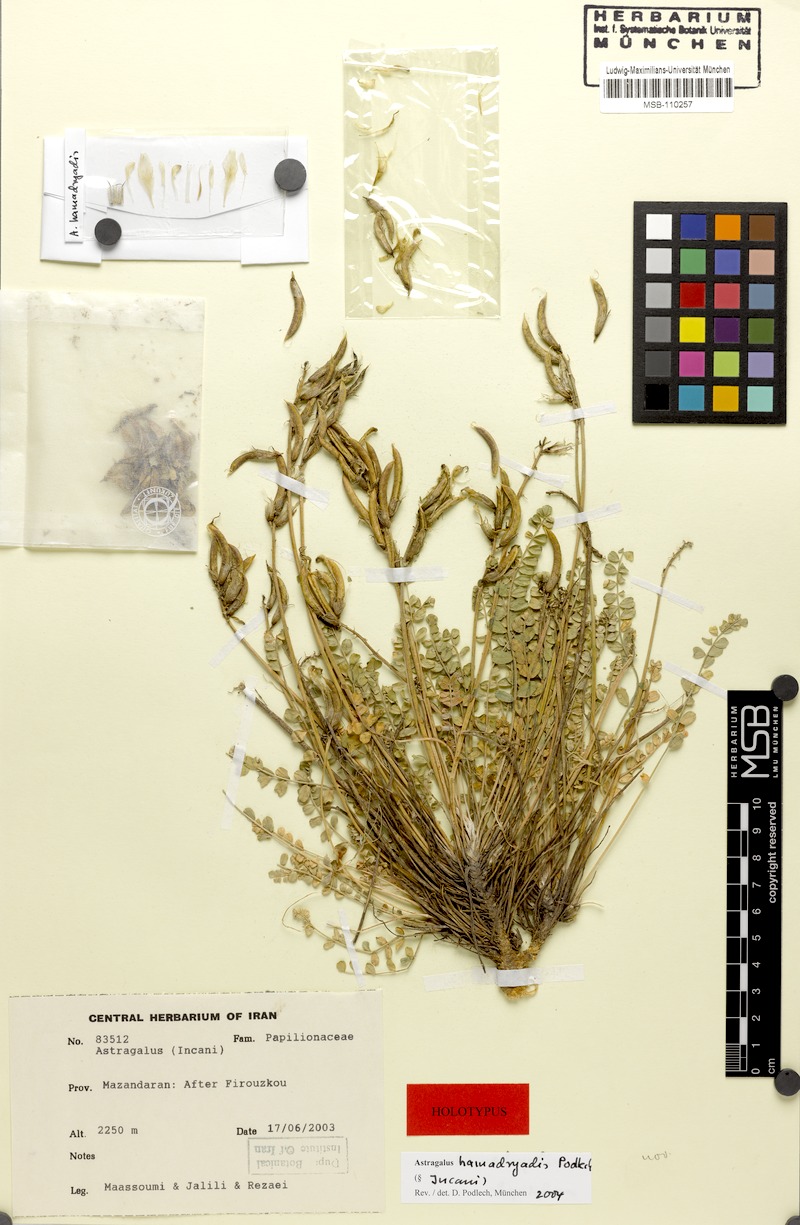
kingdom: Plantae
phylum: Tracheophyta
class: Magnoliopsida
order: Fabales
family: Fabaceae
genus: Astragalus
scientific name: Astragalus confusus
